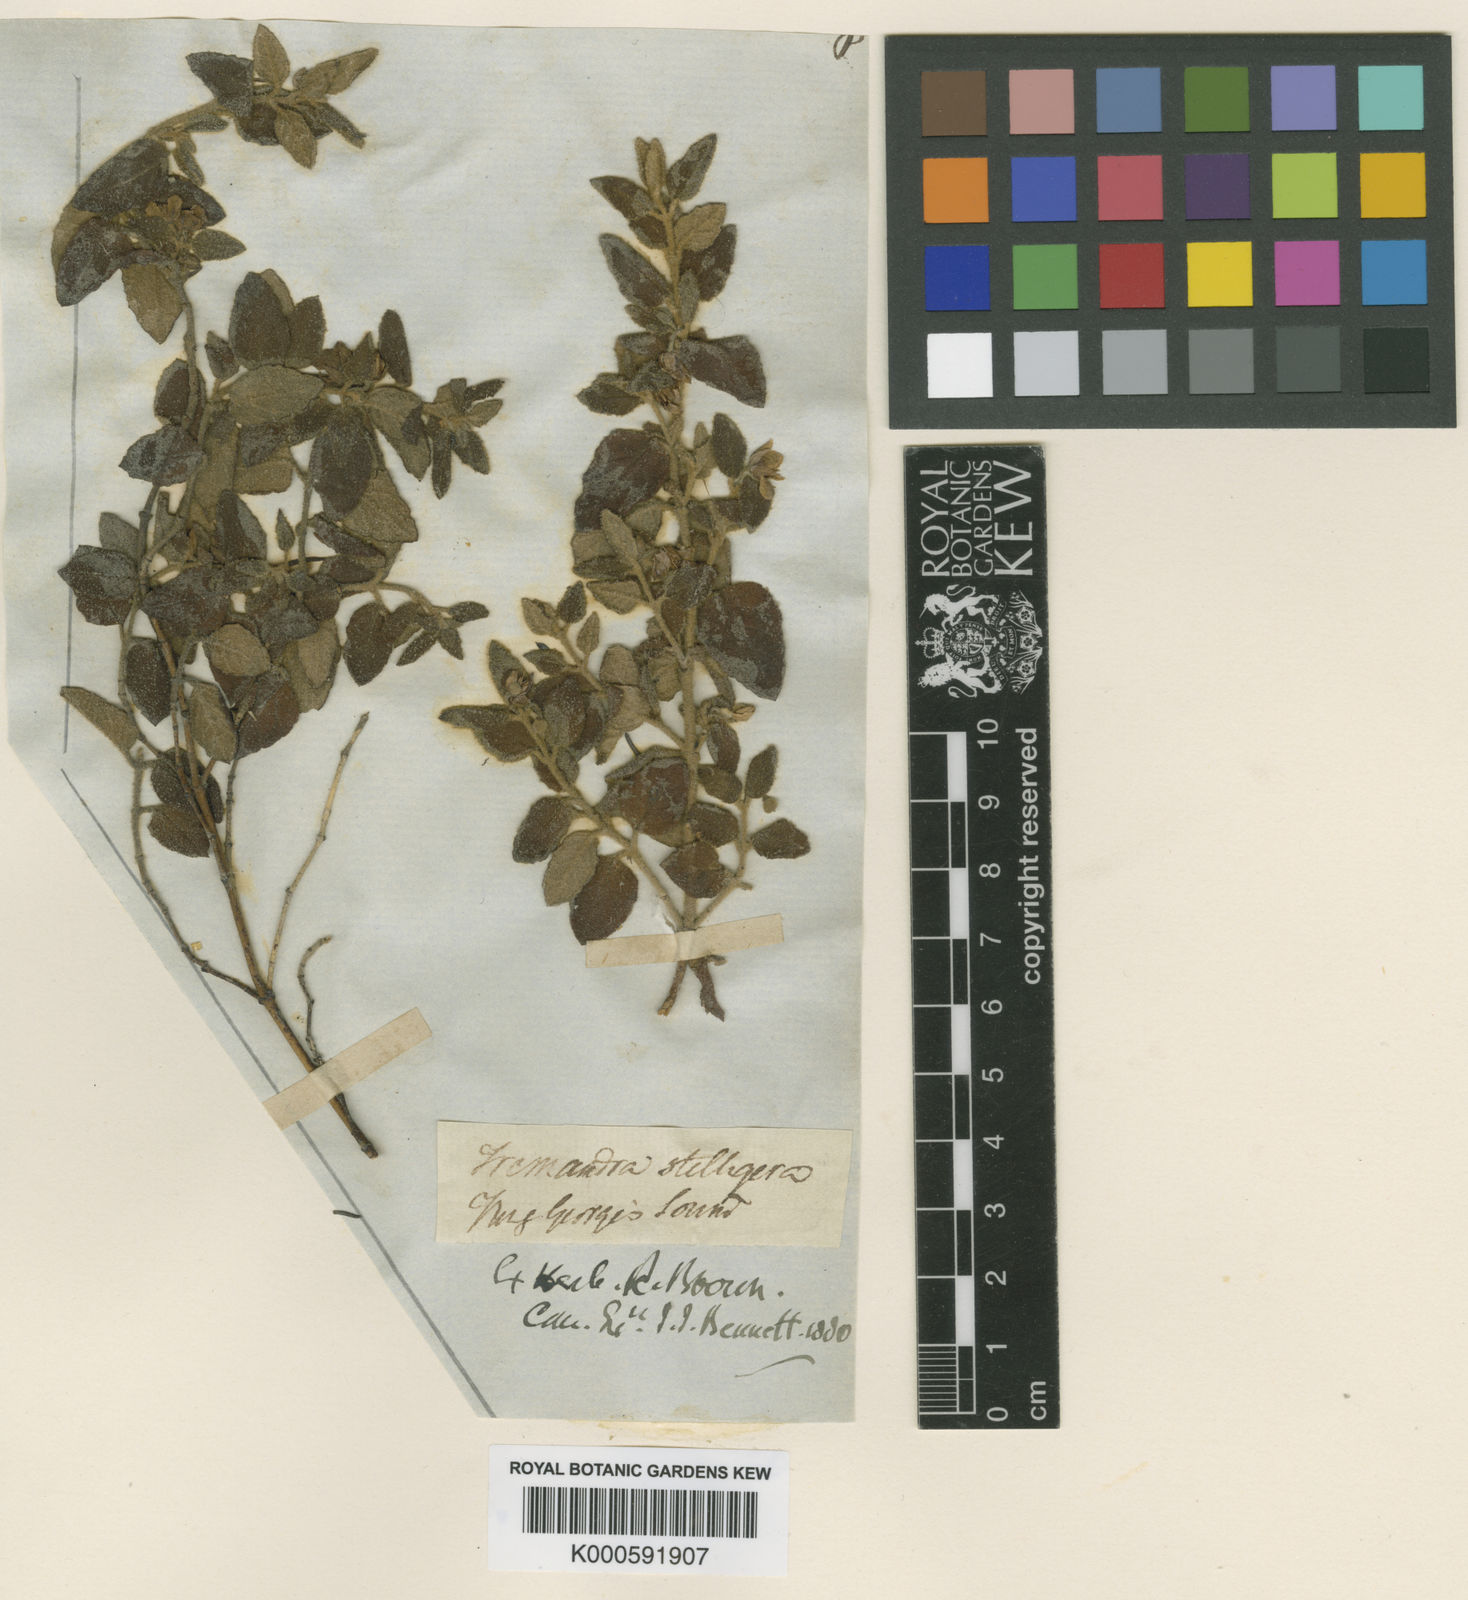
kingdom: Plantae
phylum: Tracheophyta
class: Magnoliopsida
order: Oxalidales
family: Elaeocarpaceae
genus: Tremandra
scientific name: Tremandra
